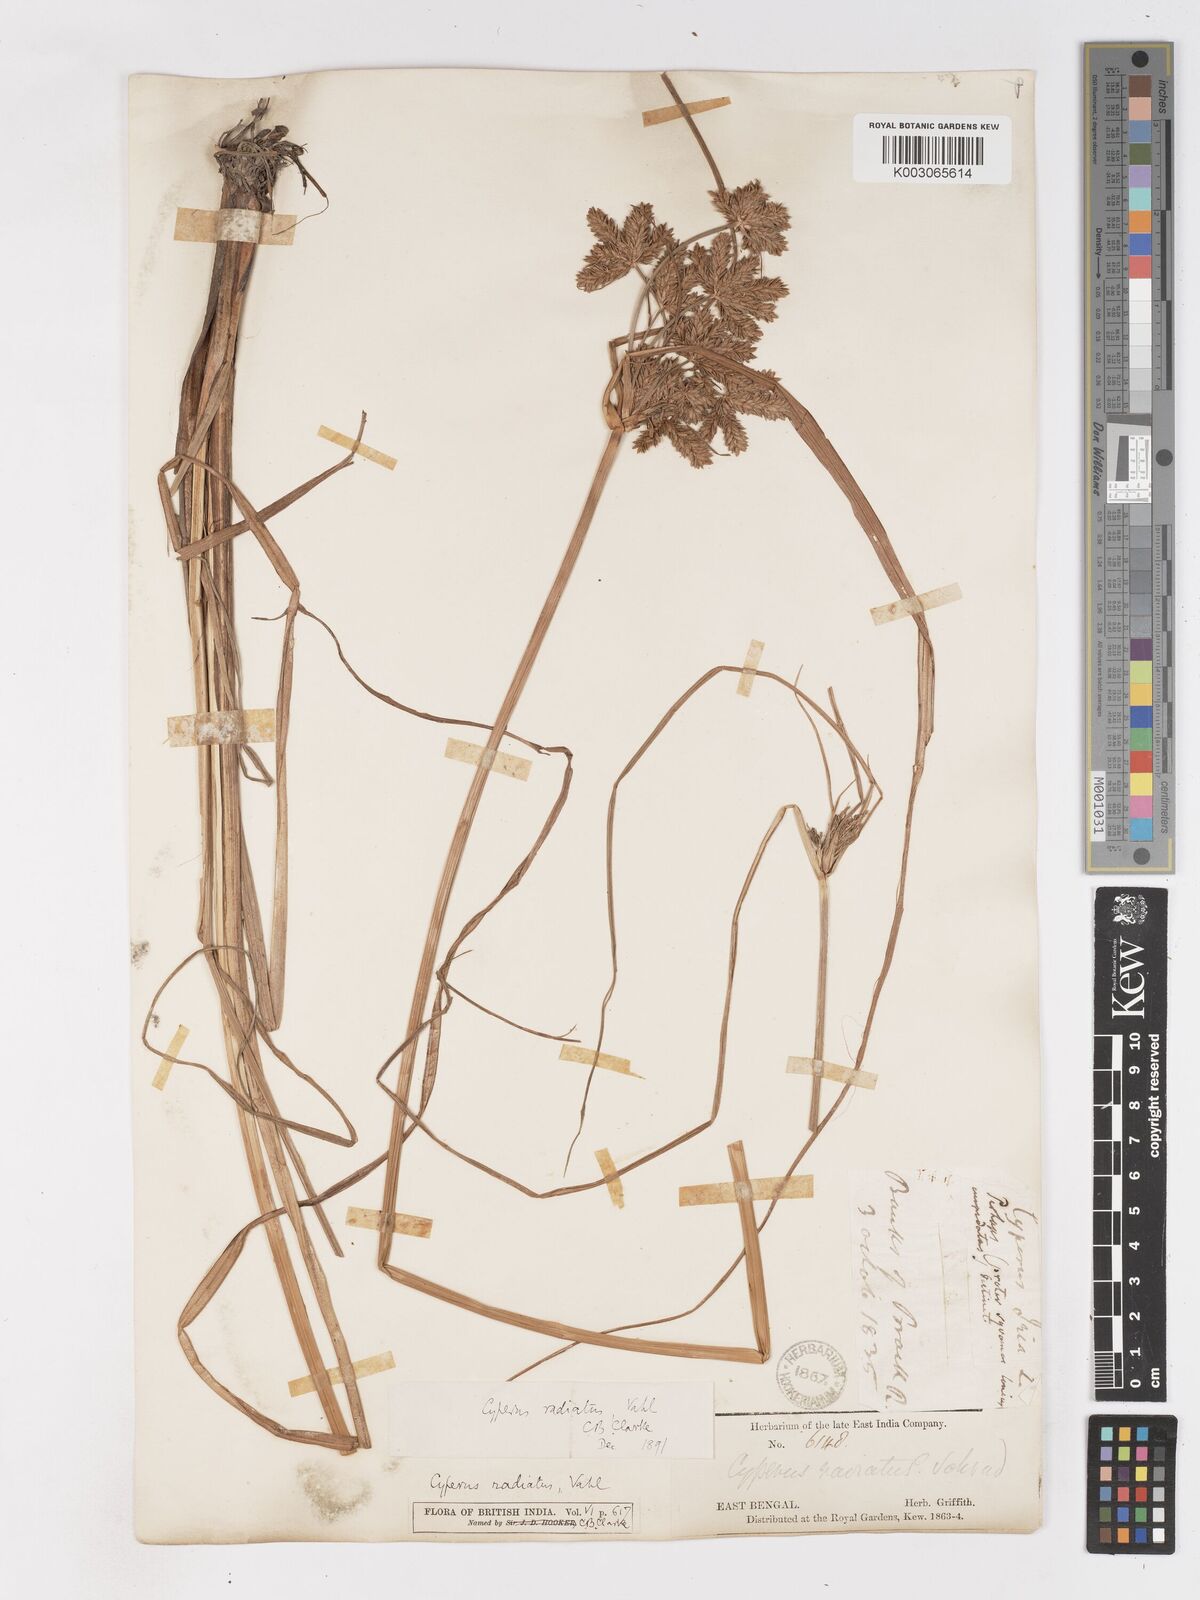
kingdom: Plantae
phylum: Tracheophyta
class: Liliopsida
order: Poales
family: Cyperaceae
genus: Cyperus
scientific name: Cyperus imbricatus
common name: Shingle flatsedge
